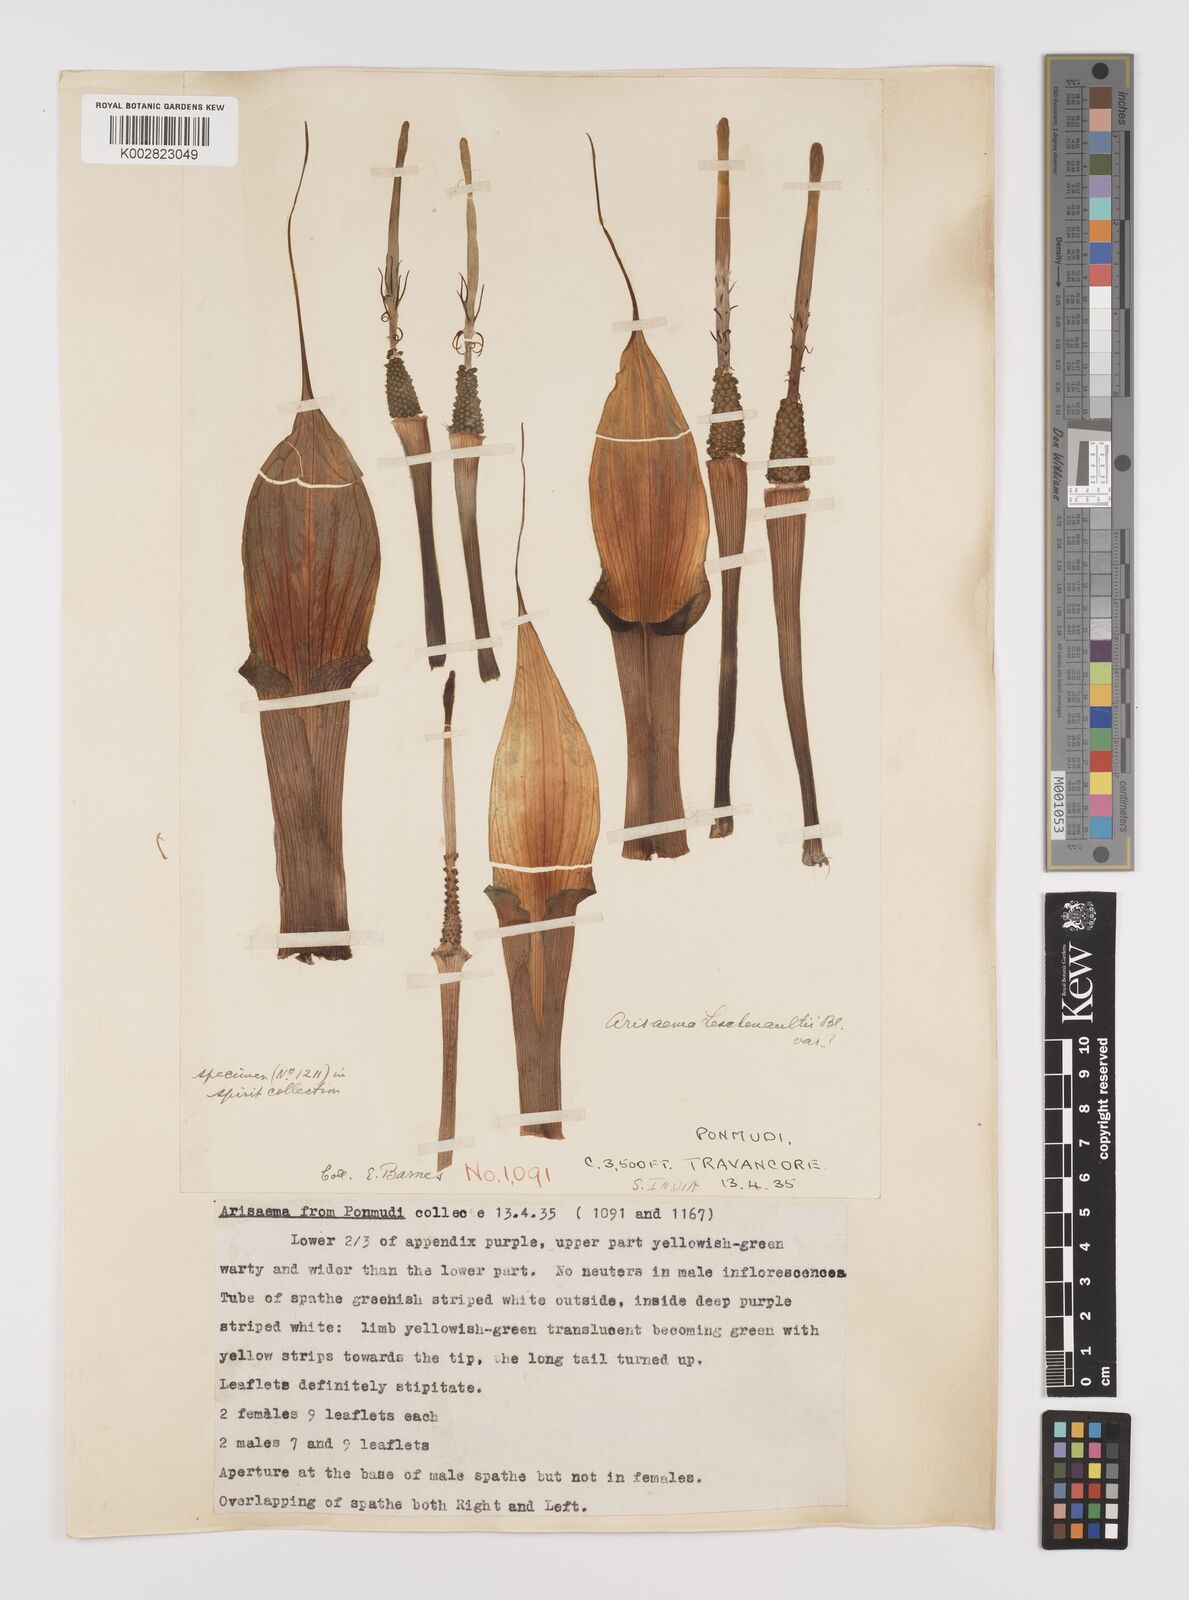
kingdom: Plantae
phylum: Tracheophyta
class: Liliopsida
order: Alismatales
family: Araceae
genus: Arisaema
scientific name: Arisaema leschenaultii
